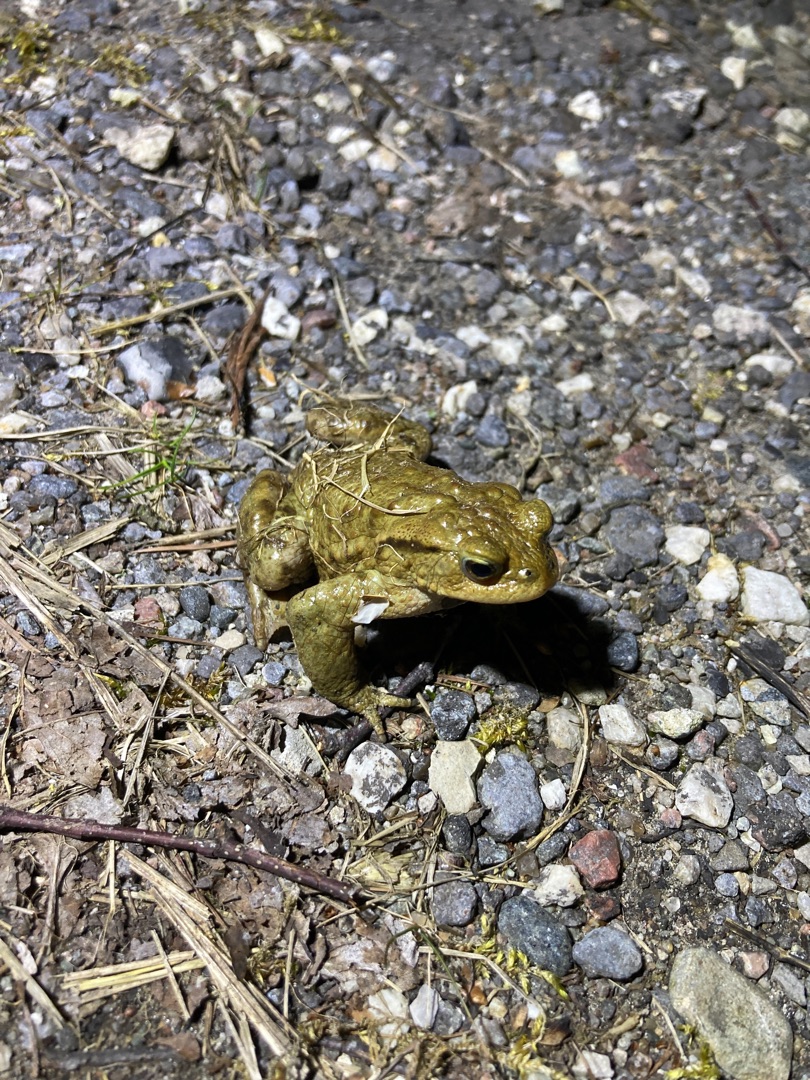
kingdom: Animalia
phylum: Chordata
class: Amphibia
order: Anura
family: Bufonidae
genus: Bufo
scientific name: Bufo bufo
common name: Skrubtudse
